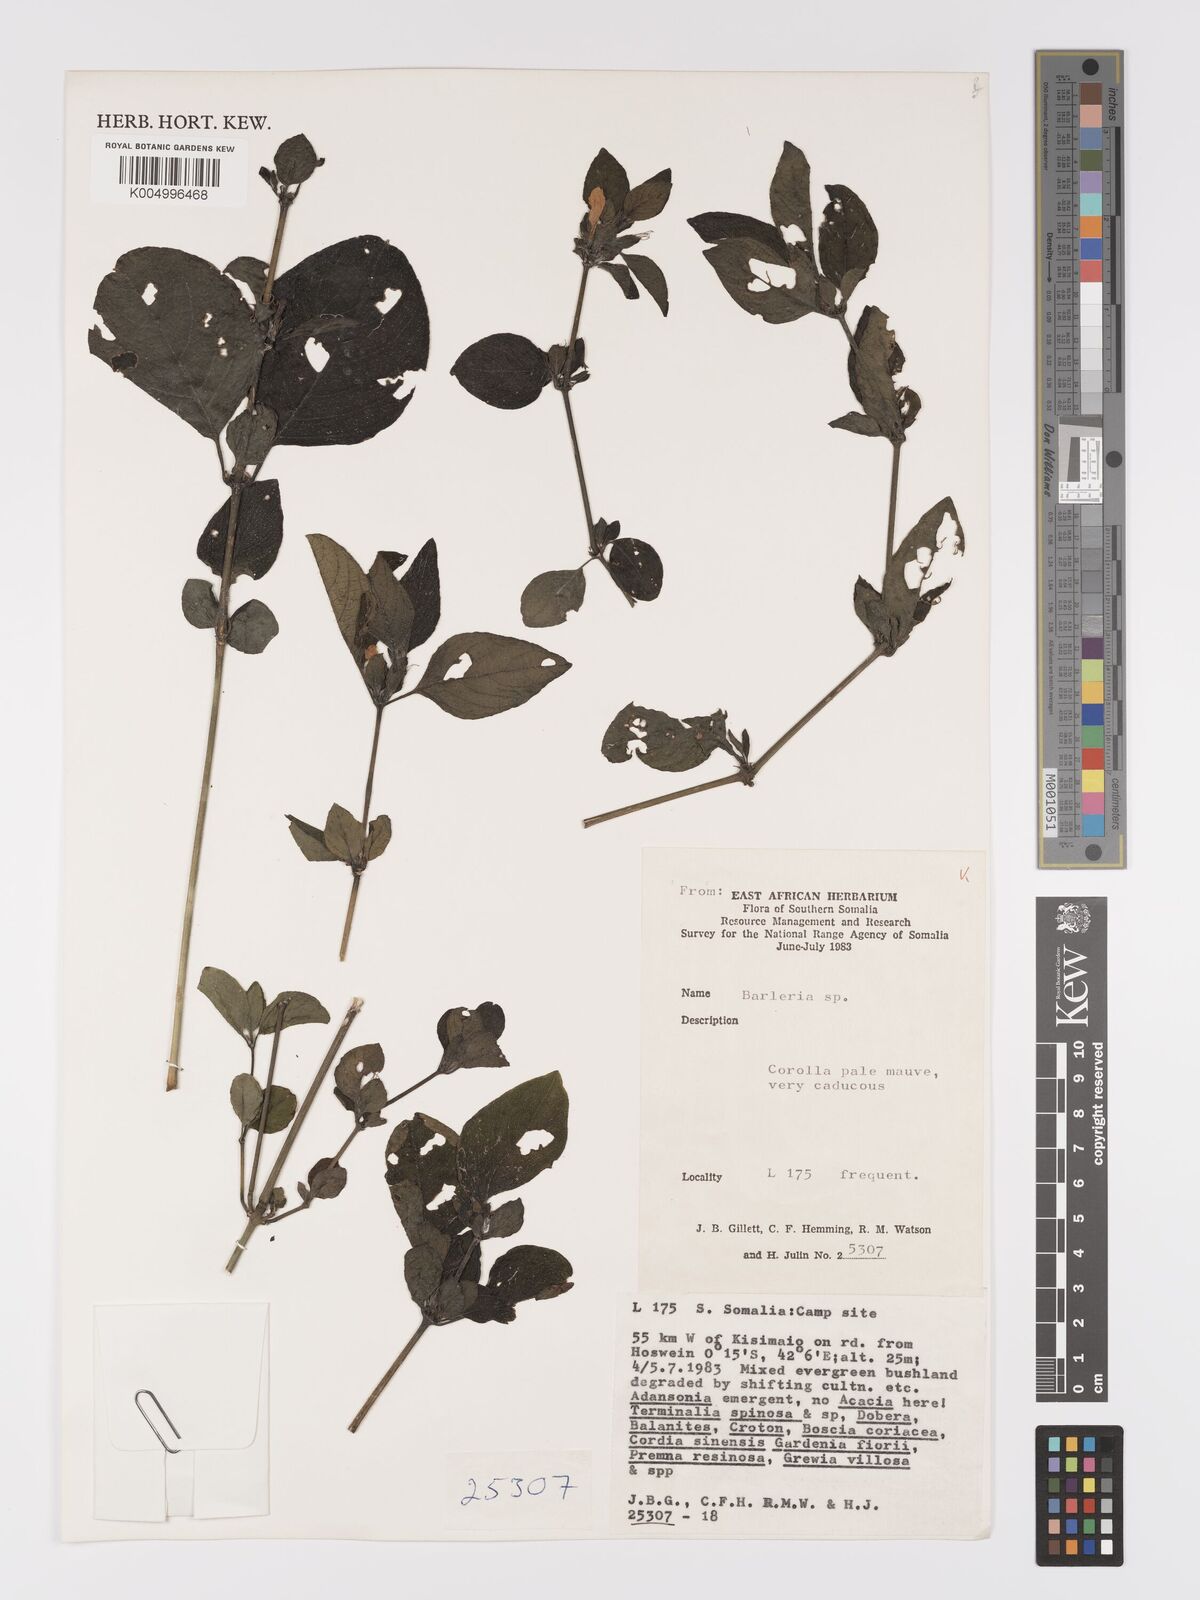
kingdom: Plantae
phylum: Tracheophyta
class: Magnoliopsida
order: Lamiales
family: Acanthaceae
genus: Ruellia
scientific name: Ruellia
